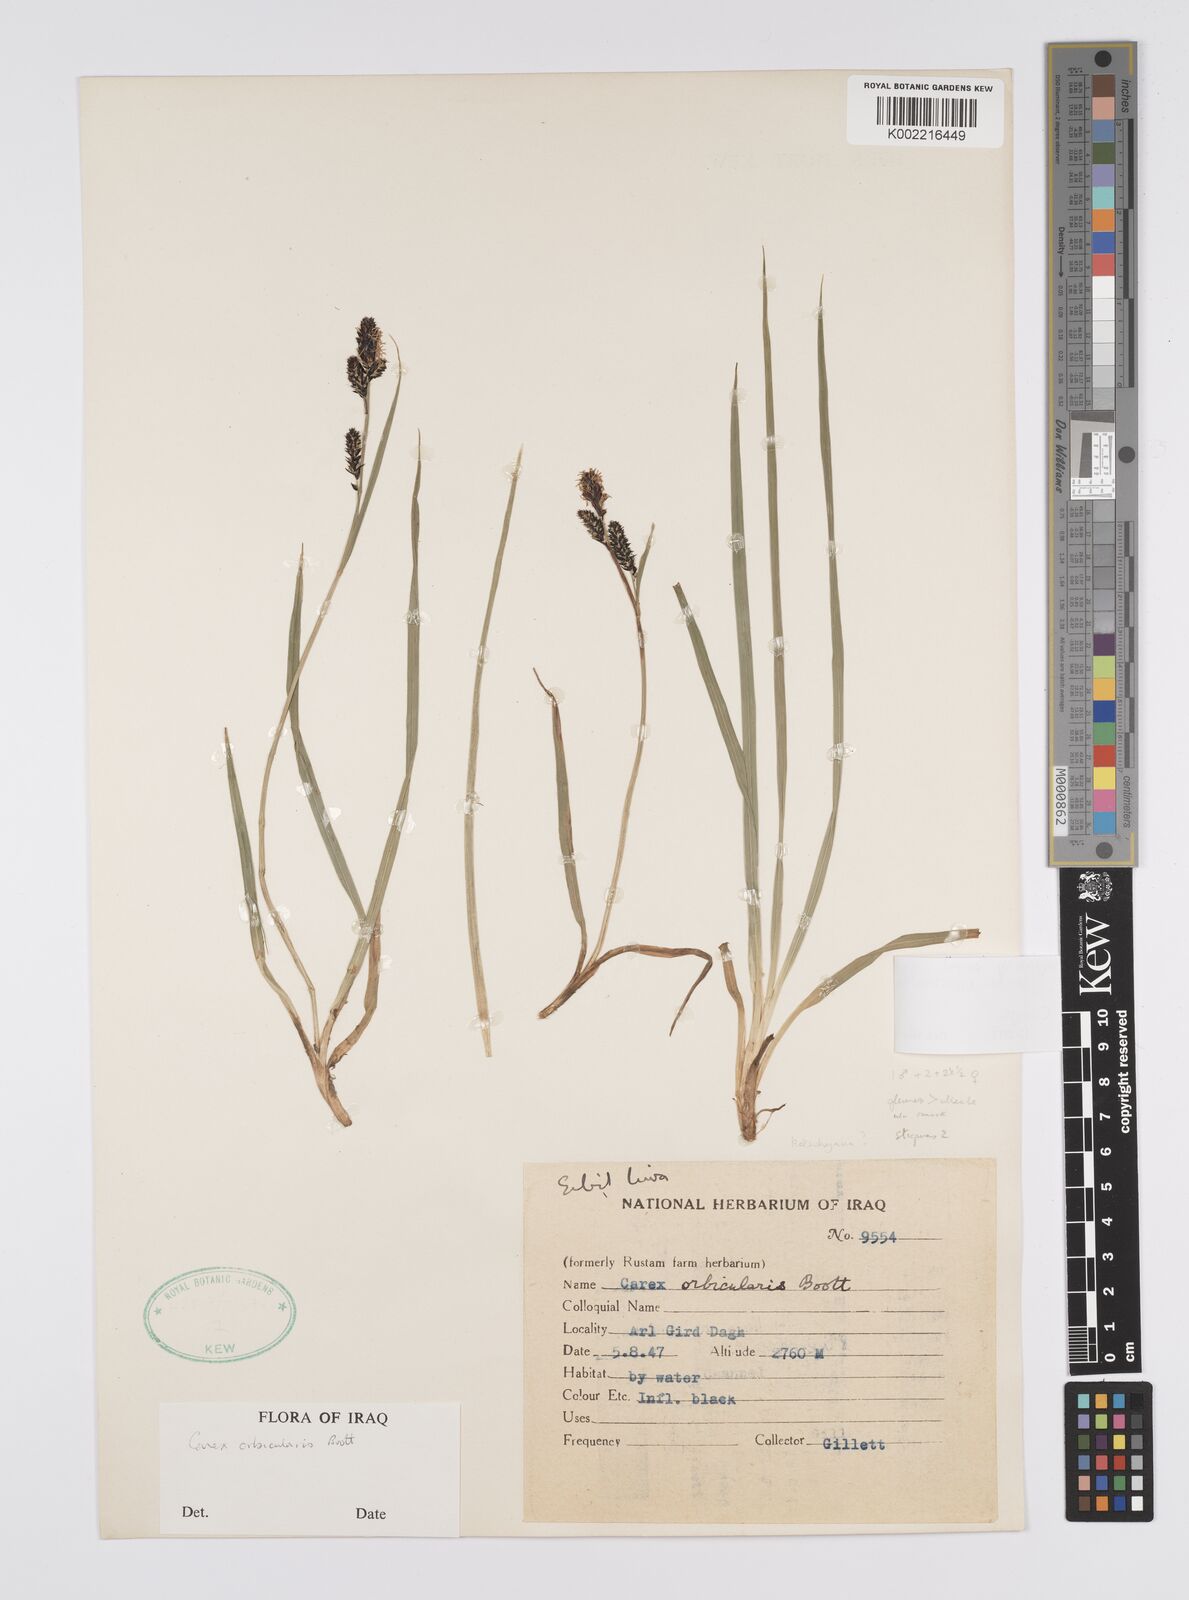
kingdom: Plantae
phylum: Tracheophyta
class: Liliopsida
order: Poales
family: Cyperaceae
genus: Carex
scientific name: Carex nigra
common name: Common sedge
